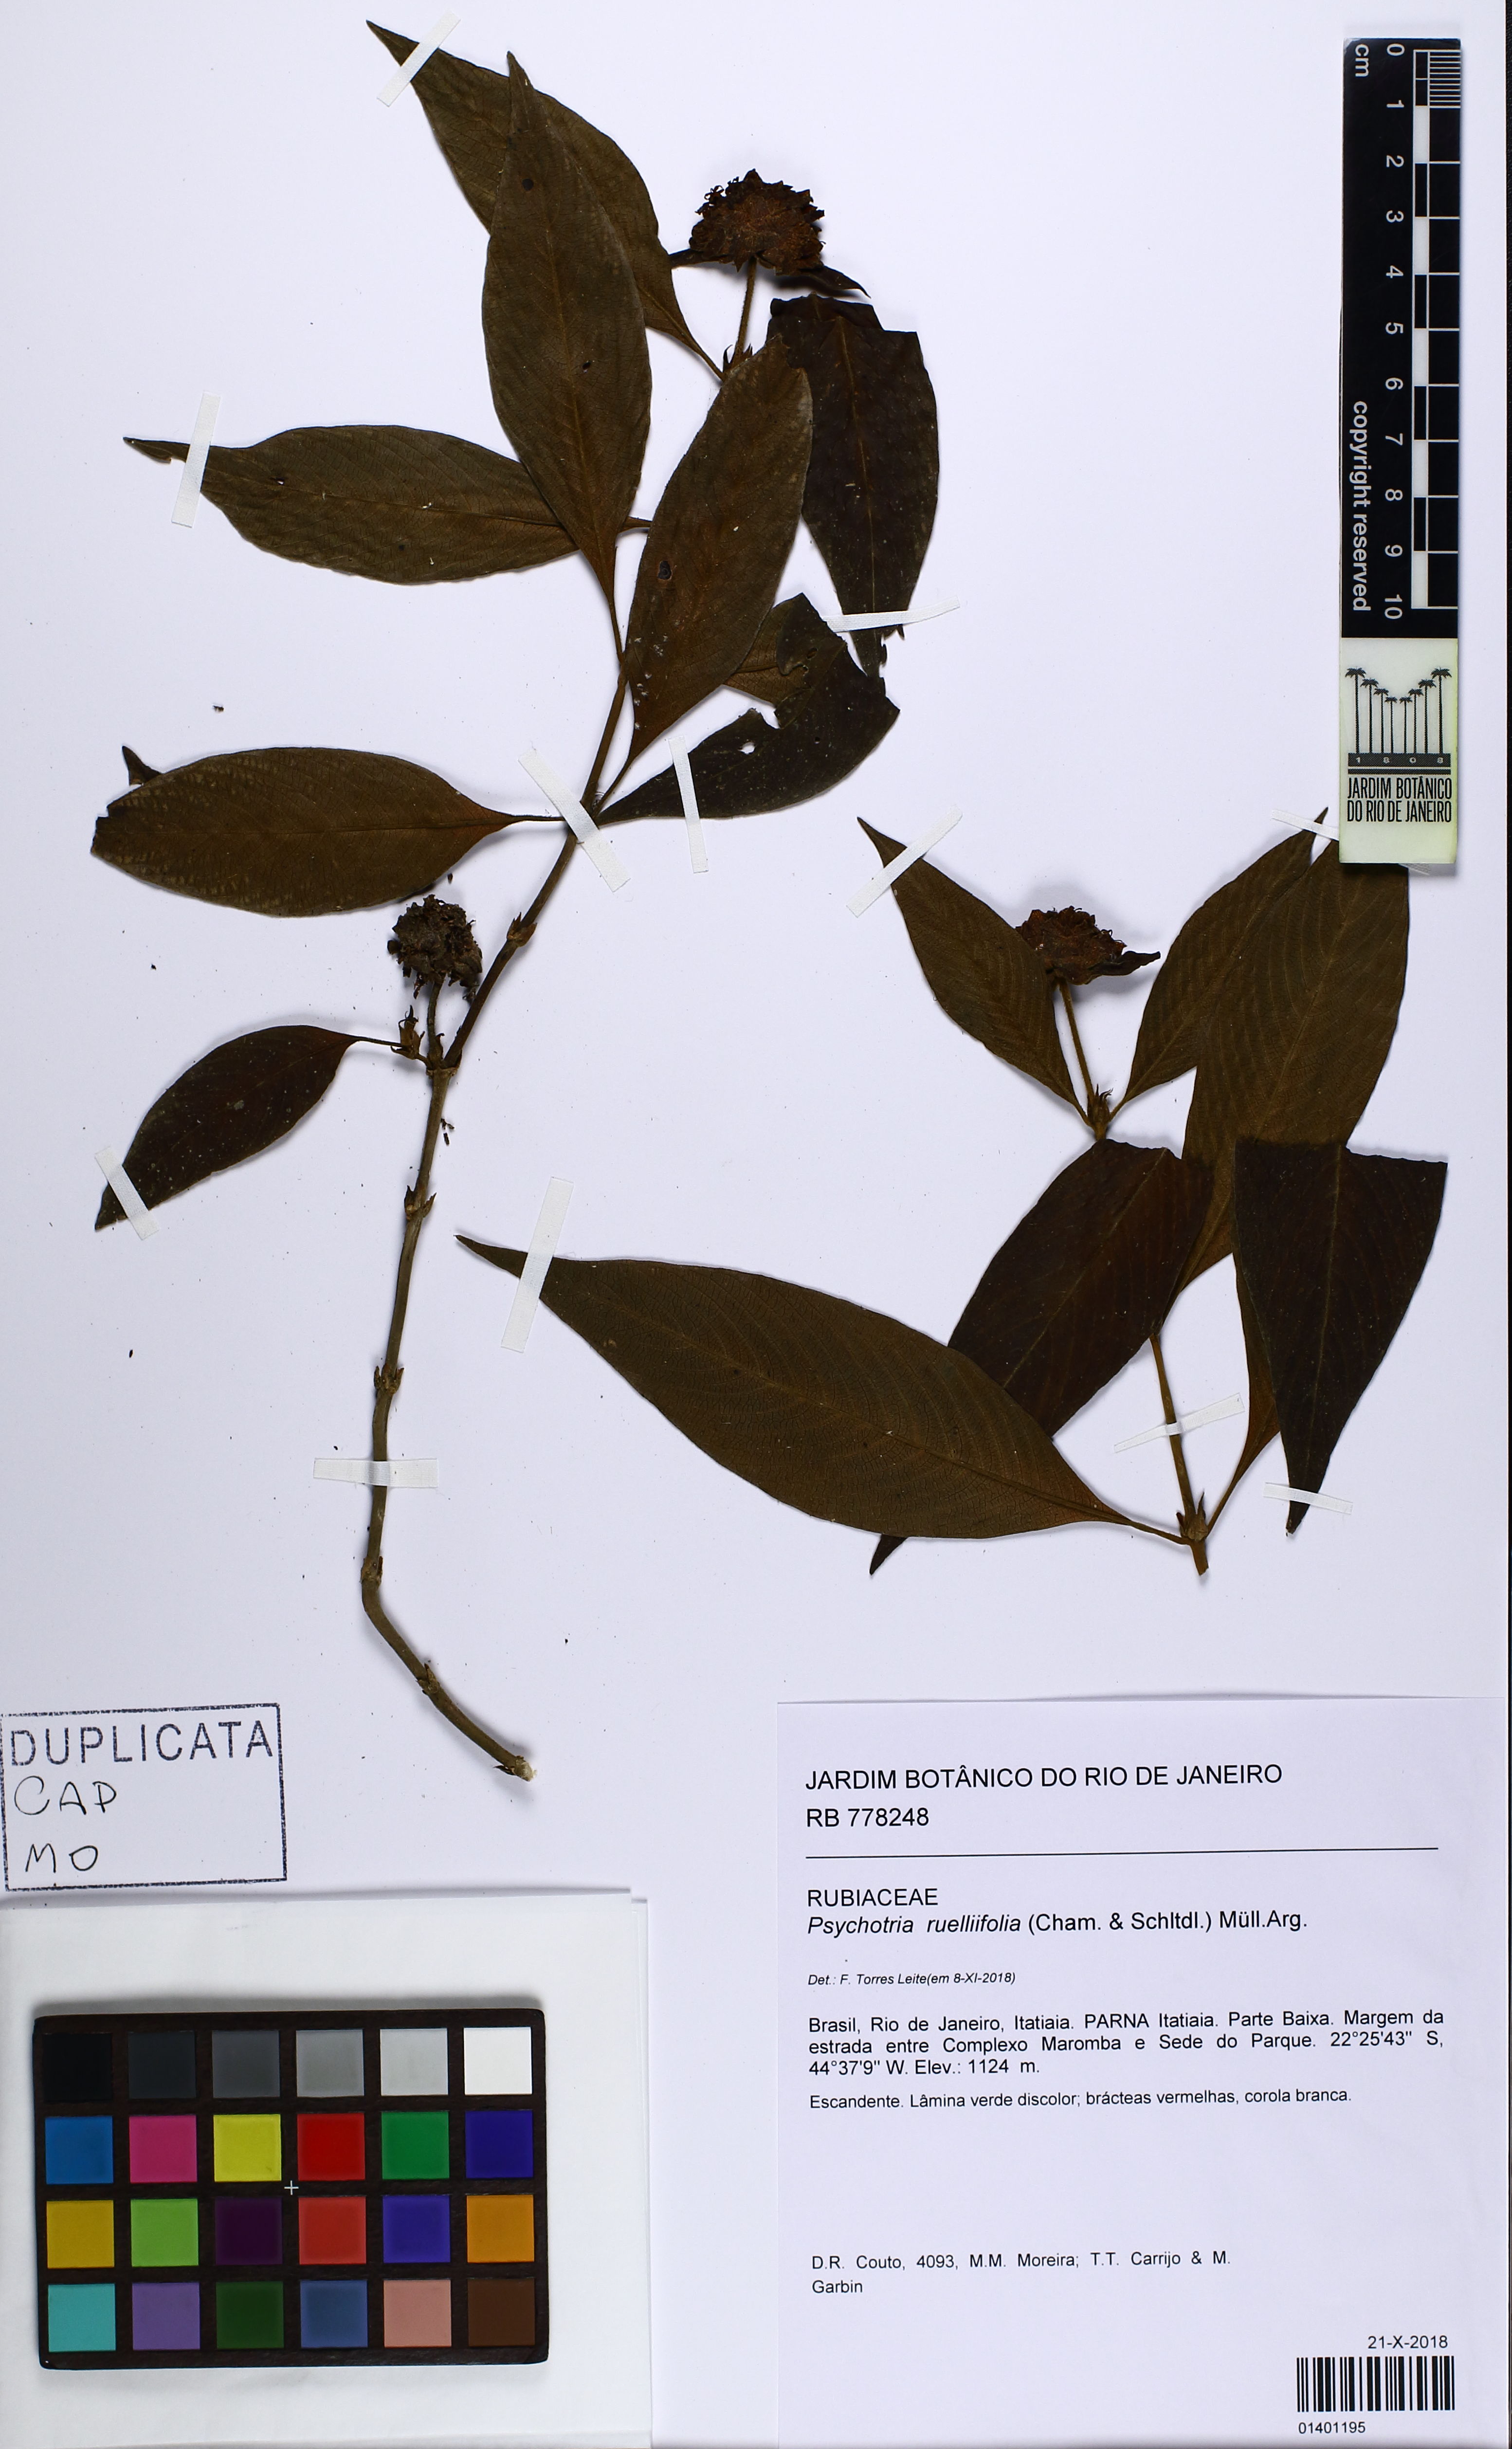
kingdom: Plantae
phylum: Tracheophyta
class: Magnoliopsida
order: Gentianales
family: Rubiaceae
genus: Palicourea
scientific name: Palicourea ruelliifolia
